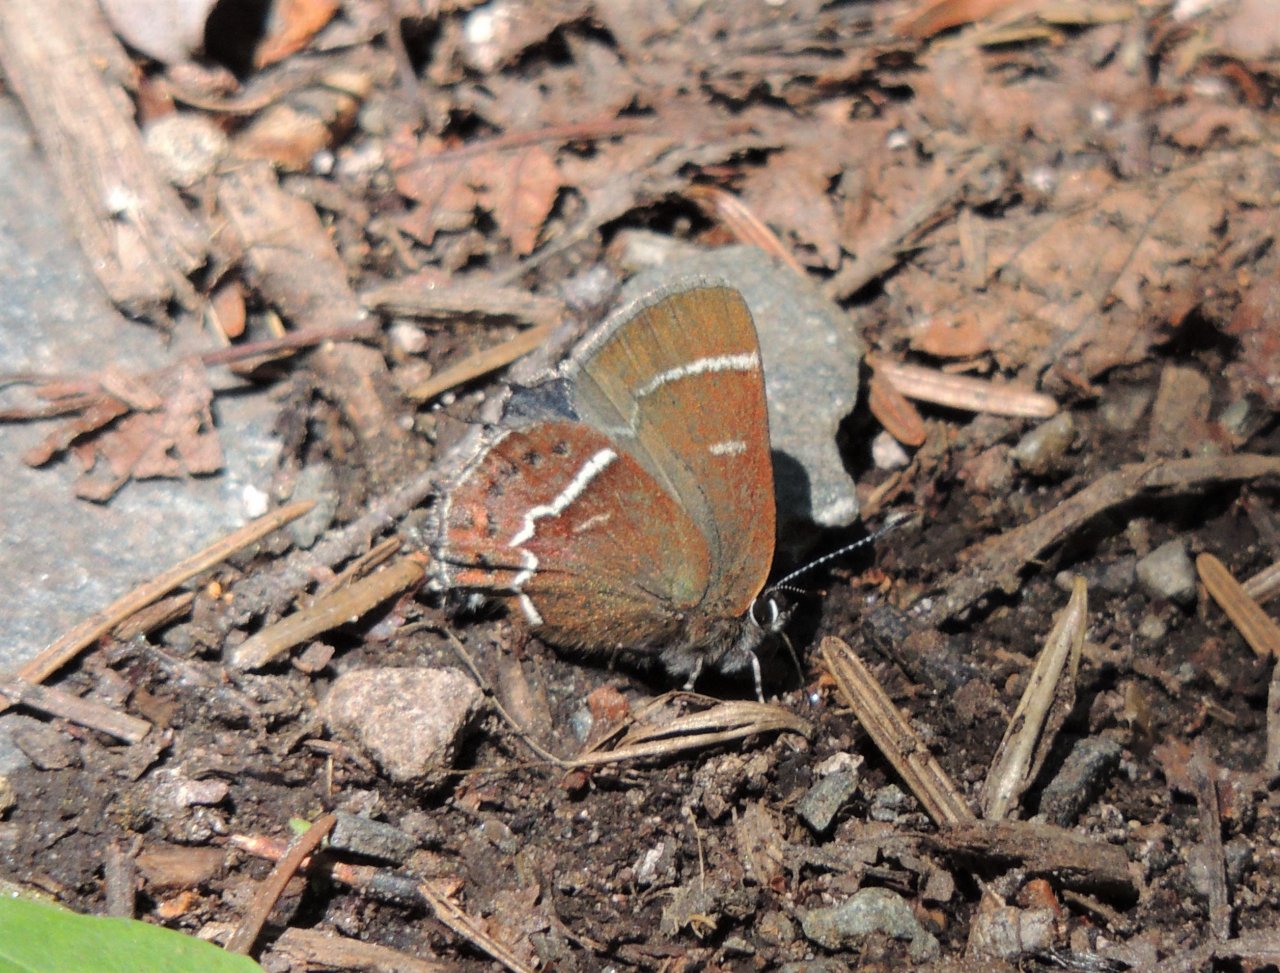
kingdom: Animalia
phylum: Arthropoda
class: Insecta
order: Lepidoptera
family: Lycaenidae
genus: Mitoura
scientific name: Mitoura spinetorum
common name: Thicket Hairstreak
